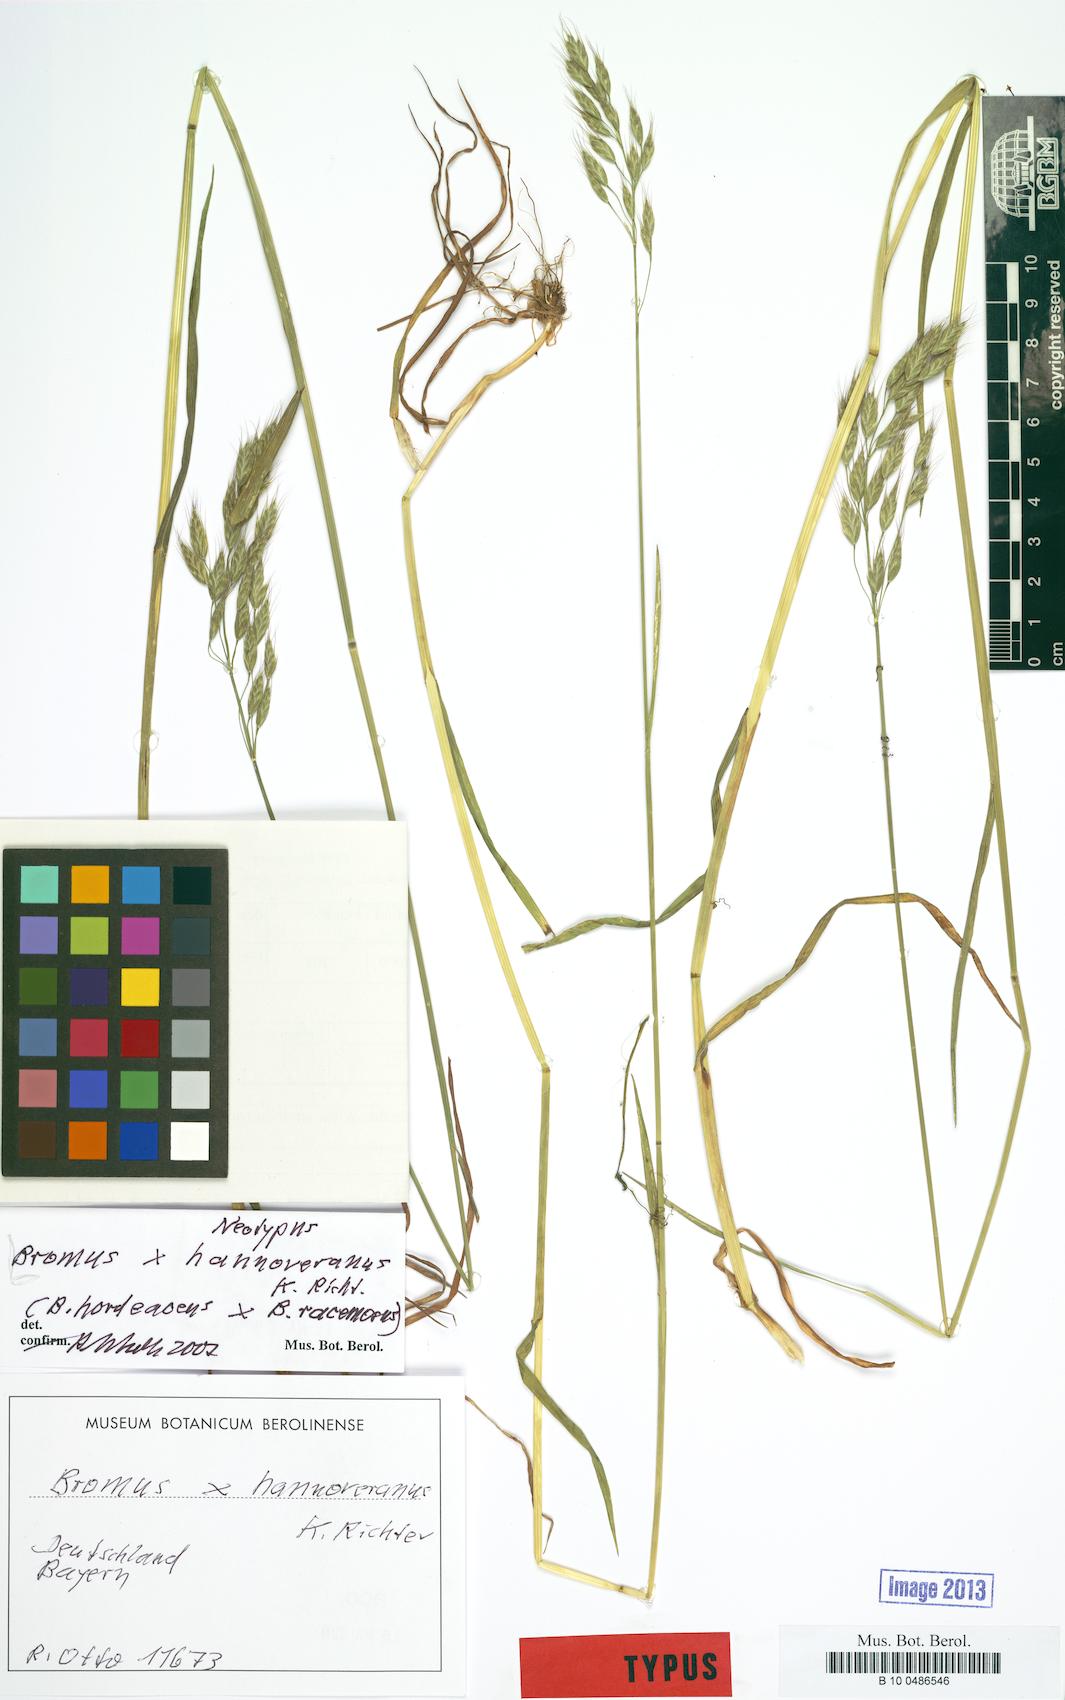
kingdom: Plantae
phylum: Tracheophyta
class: Liliopsida
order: Poales
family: Poaceae
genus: Bromus
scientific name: Bromus hannoveranus
